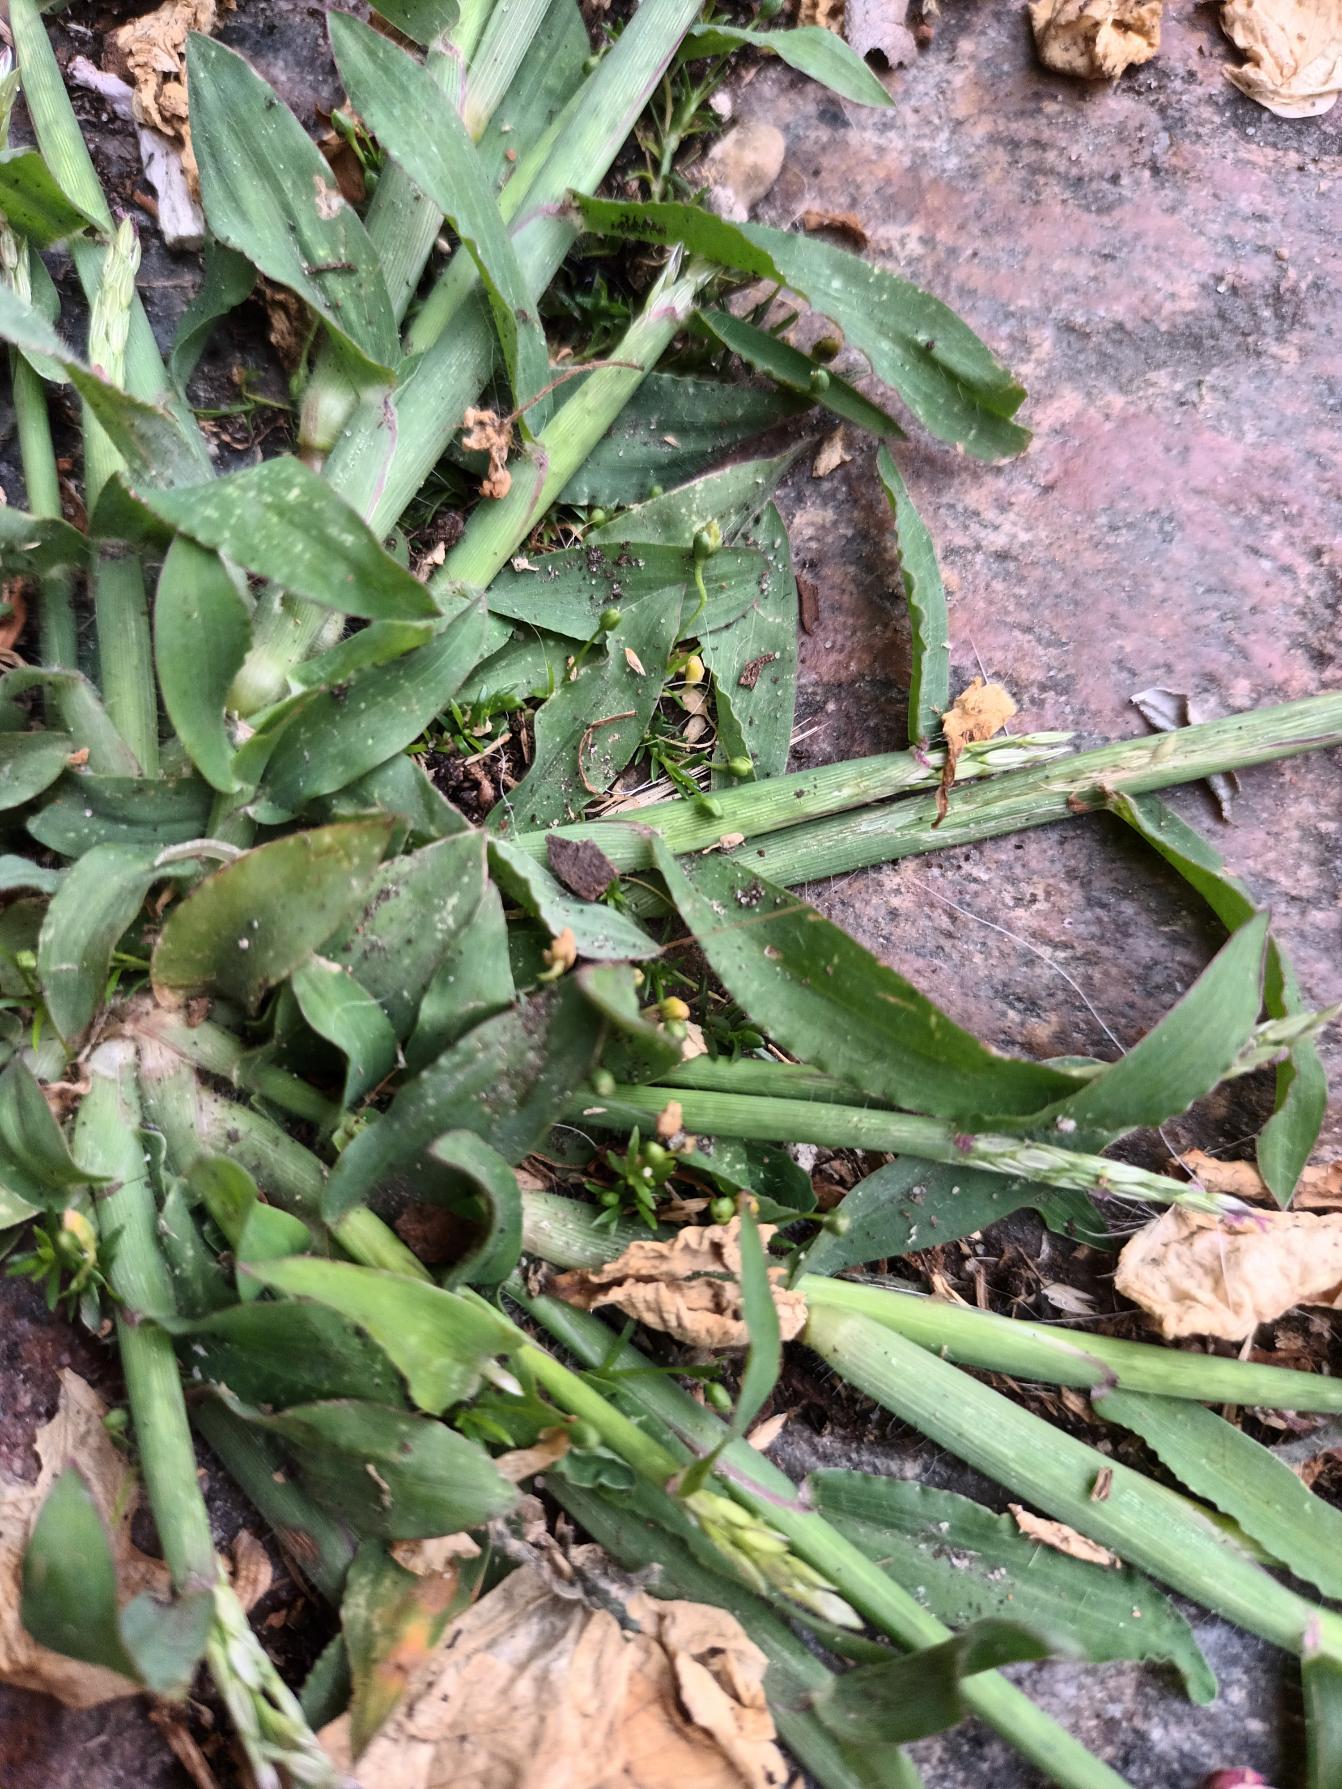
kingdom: Plantae
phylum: Tracheophyta
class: Liliopsida
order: Poales
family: Poaceae
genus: Digitaria
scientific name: Digitaria sanguinalis
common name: Blodhirse
